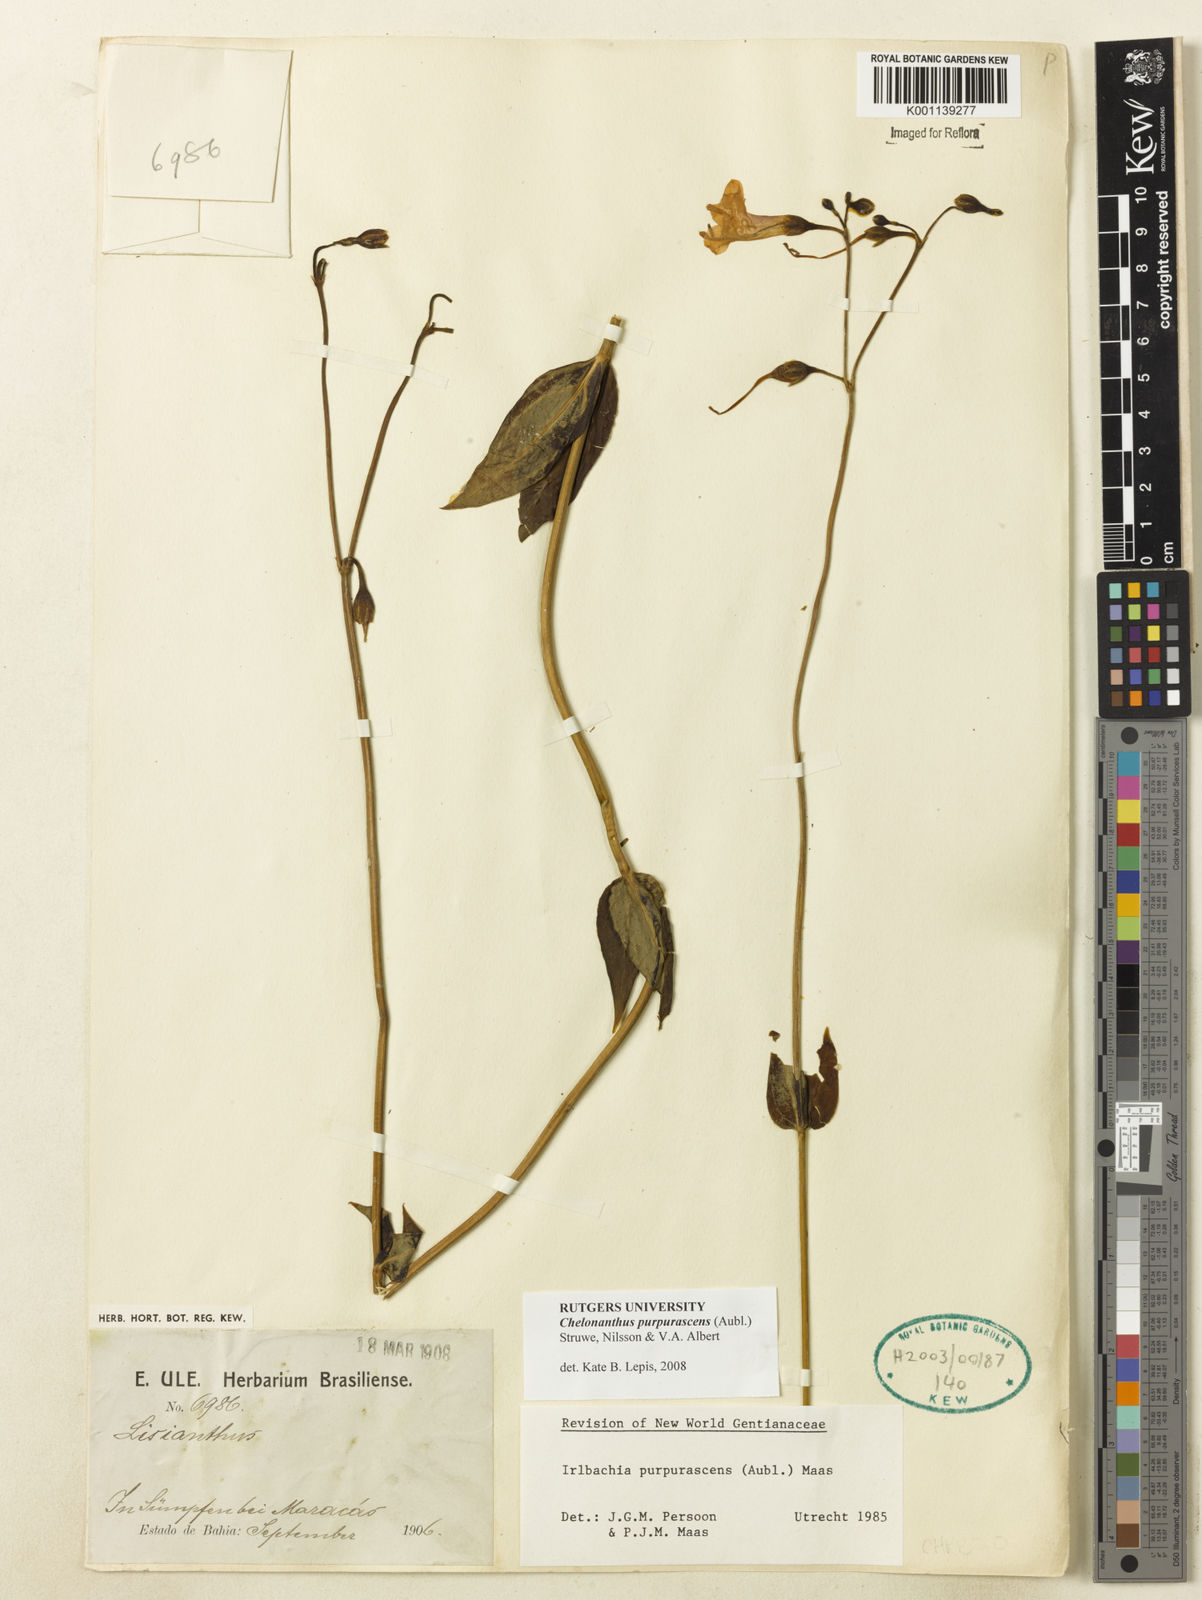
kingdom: Plantae
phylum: Tracheophyta
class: Magnoliopsida
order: Gentianales
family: Gentianaceae
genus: Chelonanthus
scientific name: Chelonanthus purpurascens
